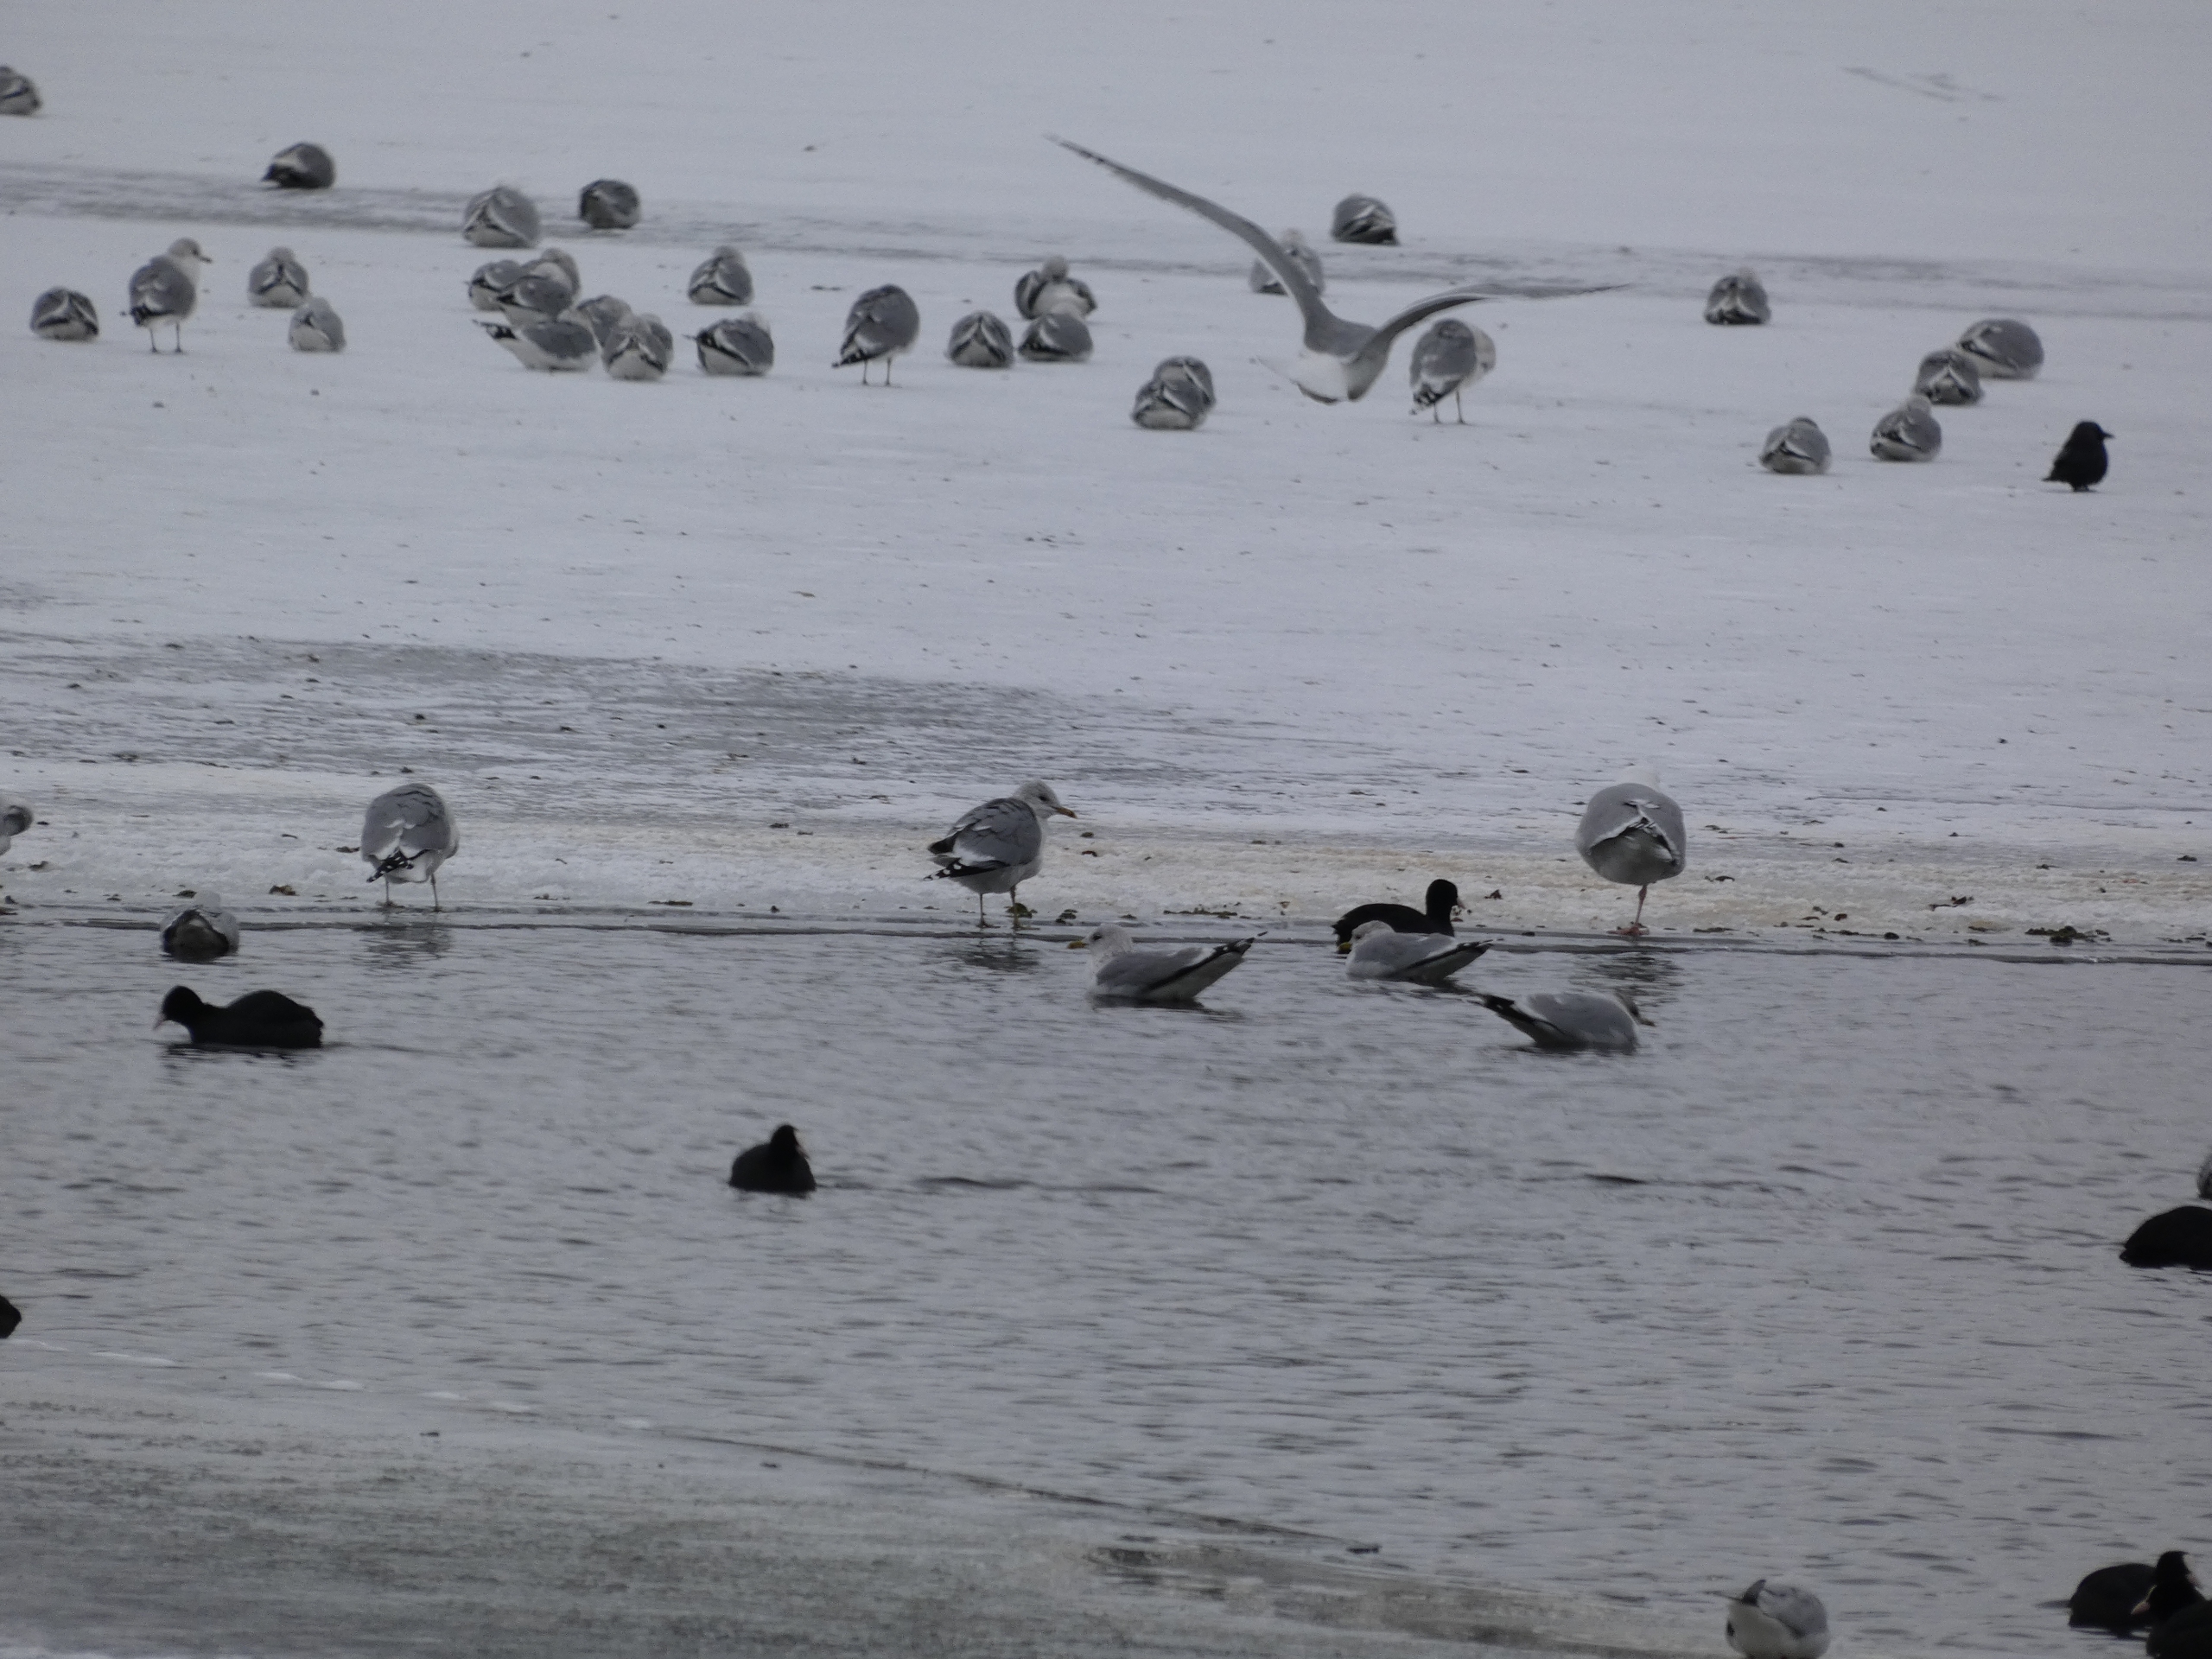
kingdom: Animalia
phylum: Chordata
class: Aves
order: Charadriiformes
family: Laridae
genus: Larus
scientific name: Larus canus
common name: Stormmåge
